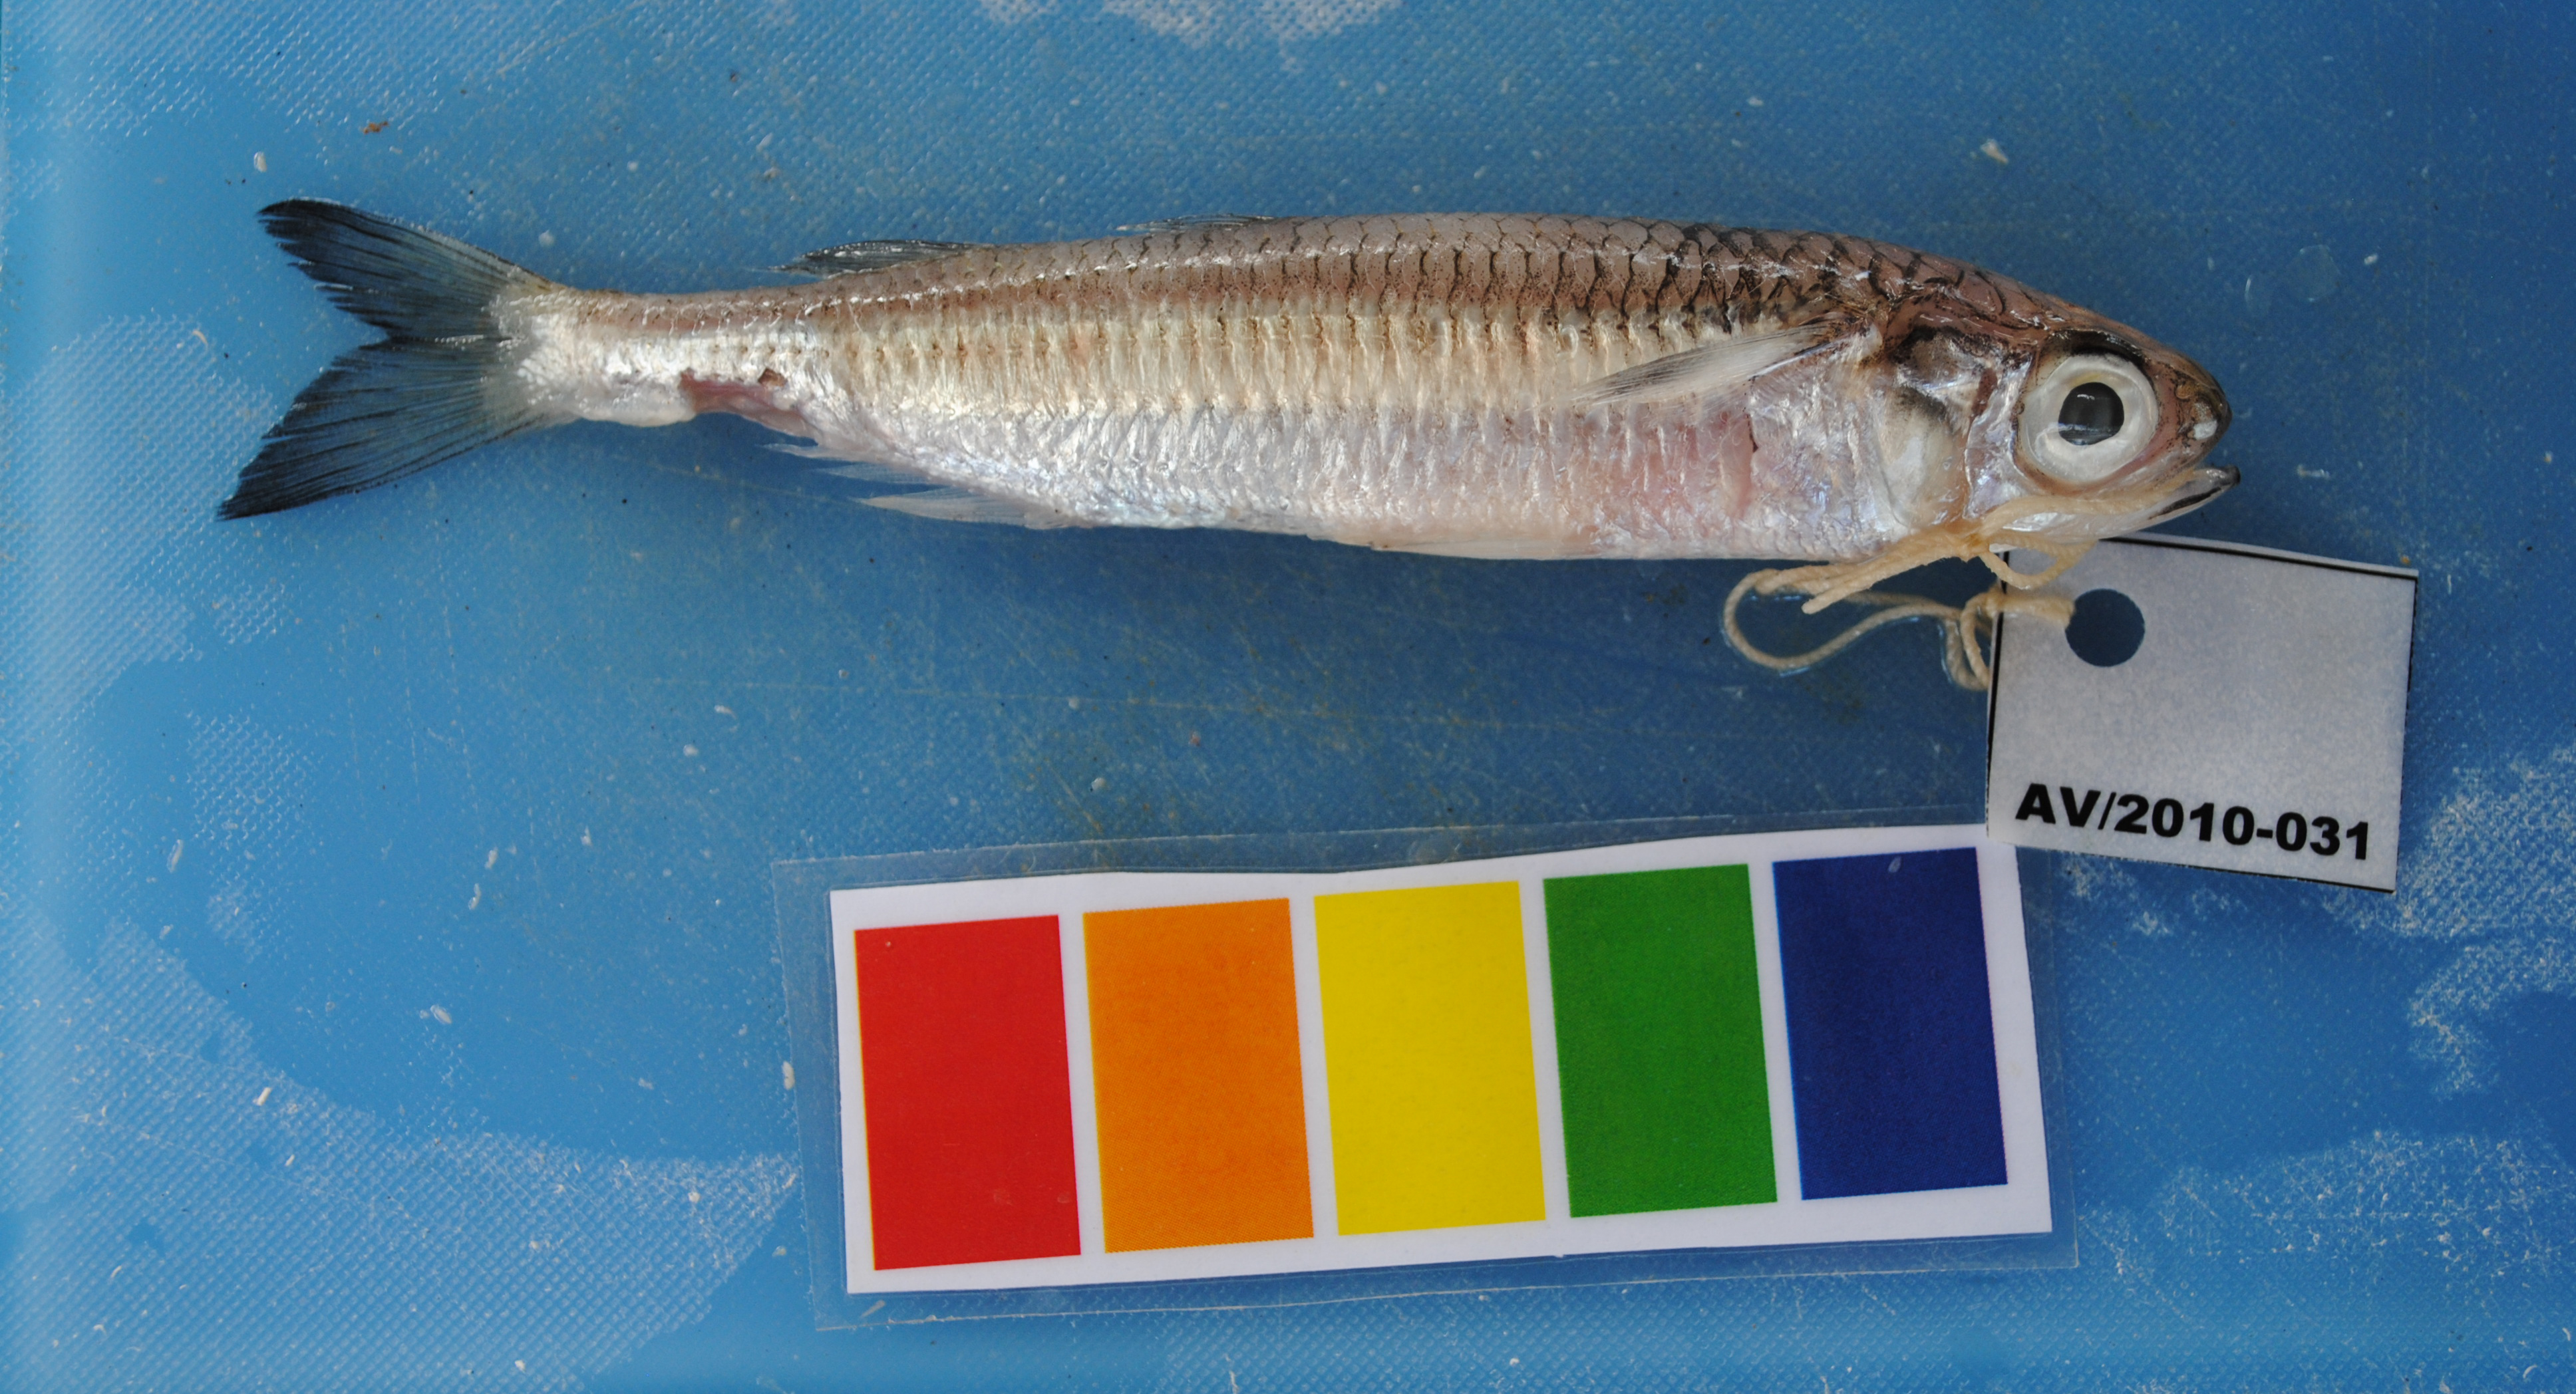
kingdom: Animalia
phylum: Chordata
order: Atheriniformes
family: Atherinidae
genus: Atherinomorus
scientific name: Atherinomorus lacunosus
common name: Hardyhead silverside
